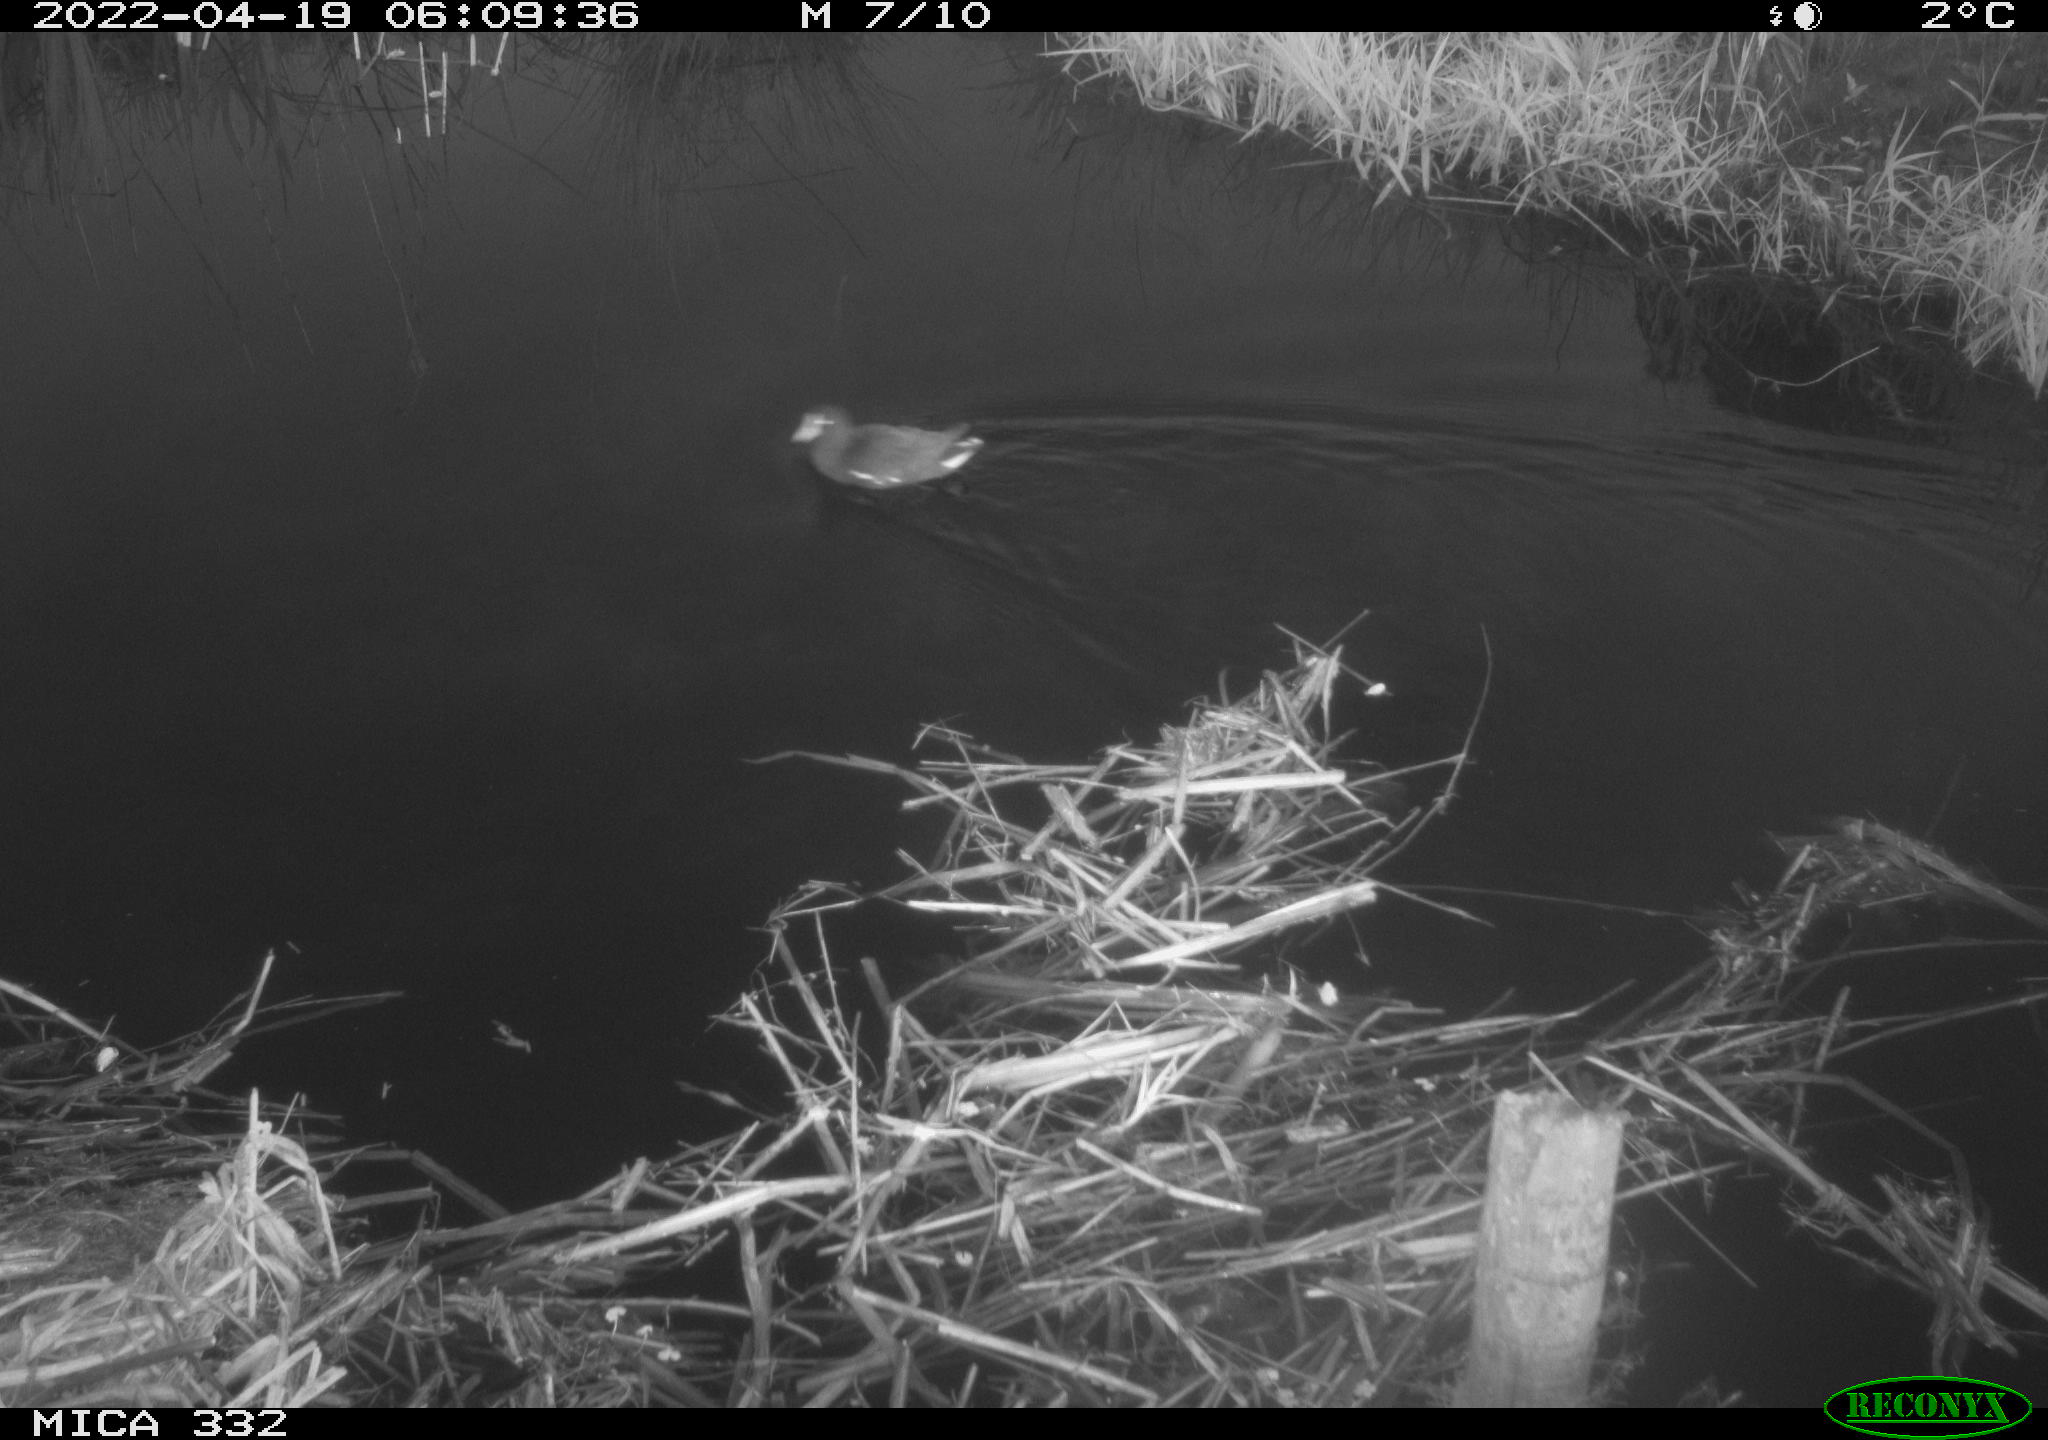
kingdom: Animalia
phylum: Chordata
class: Aves
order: Gruiformes
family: Rallidae
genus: Gallinula
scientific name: Gallinula chloropus
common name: Common moorhen
